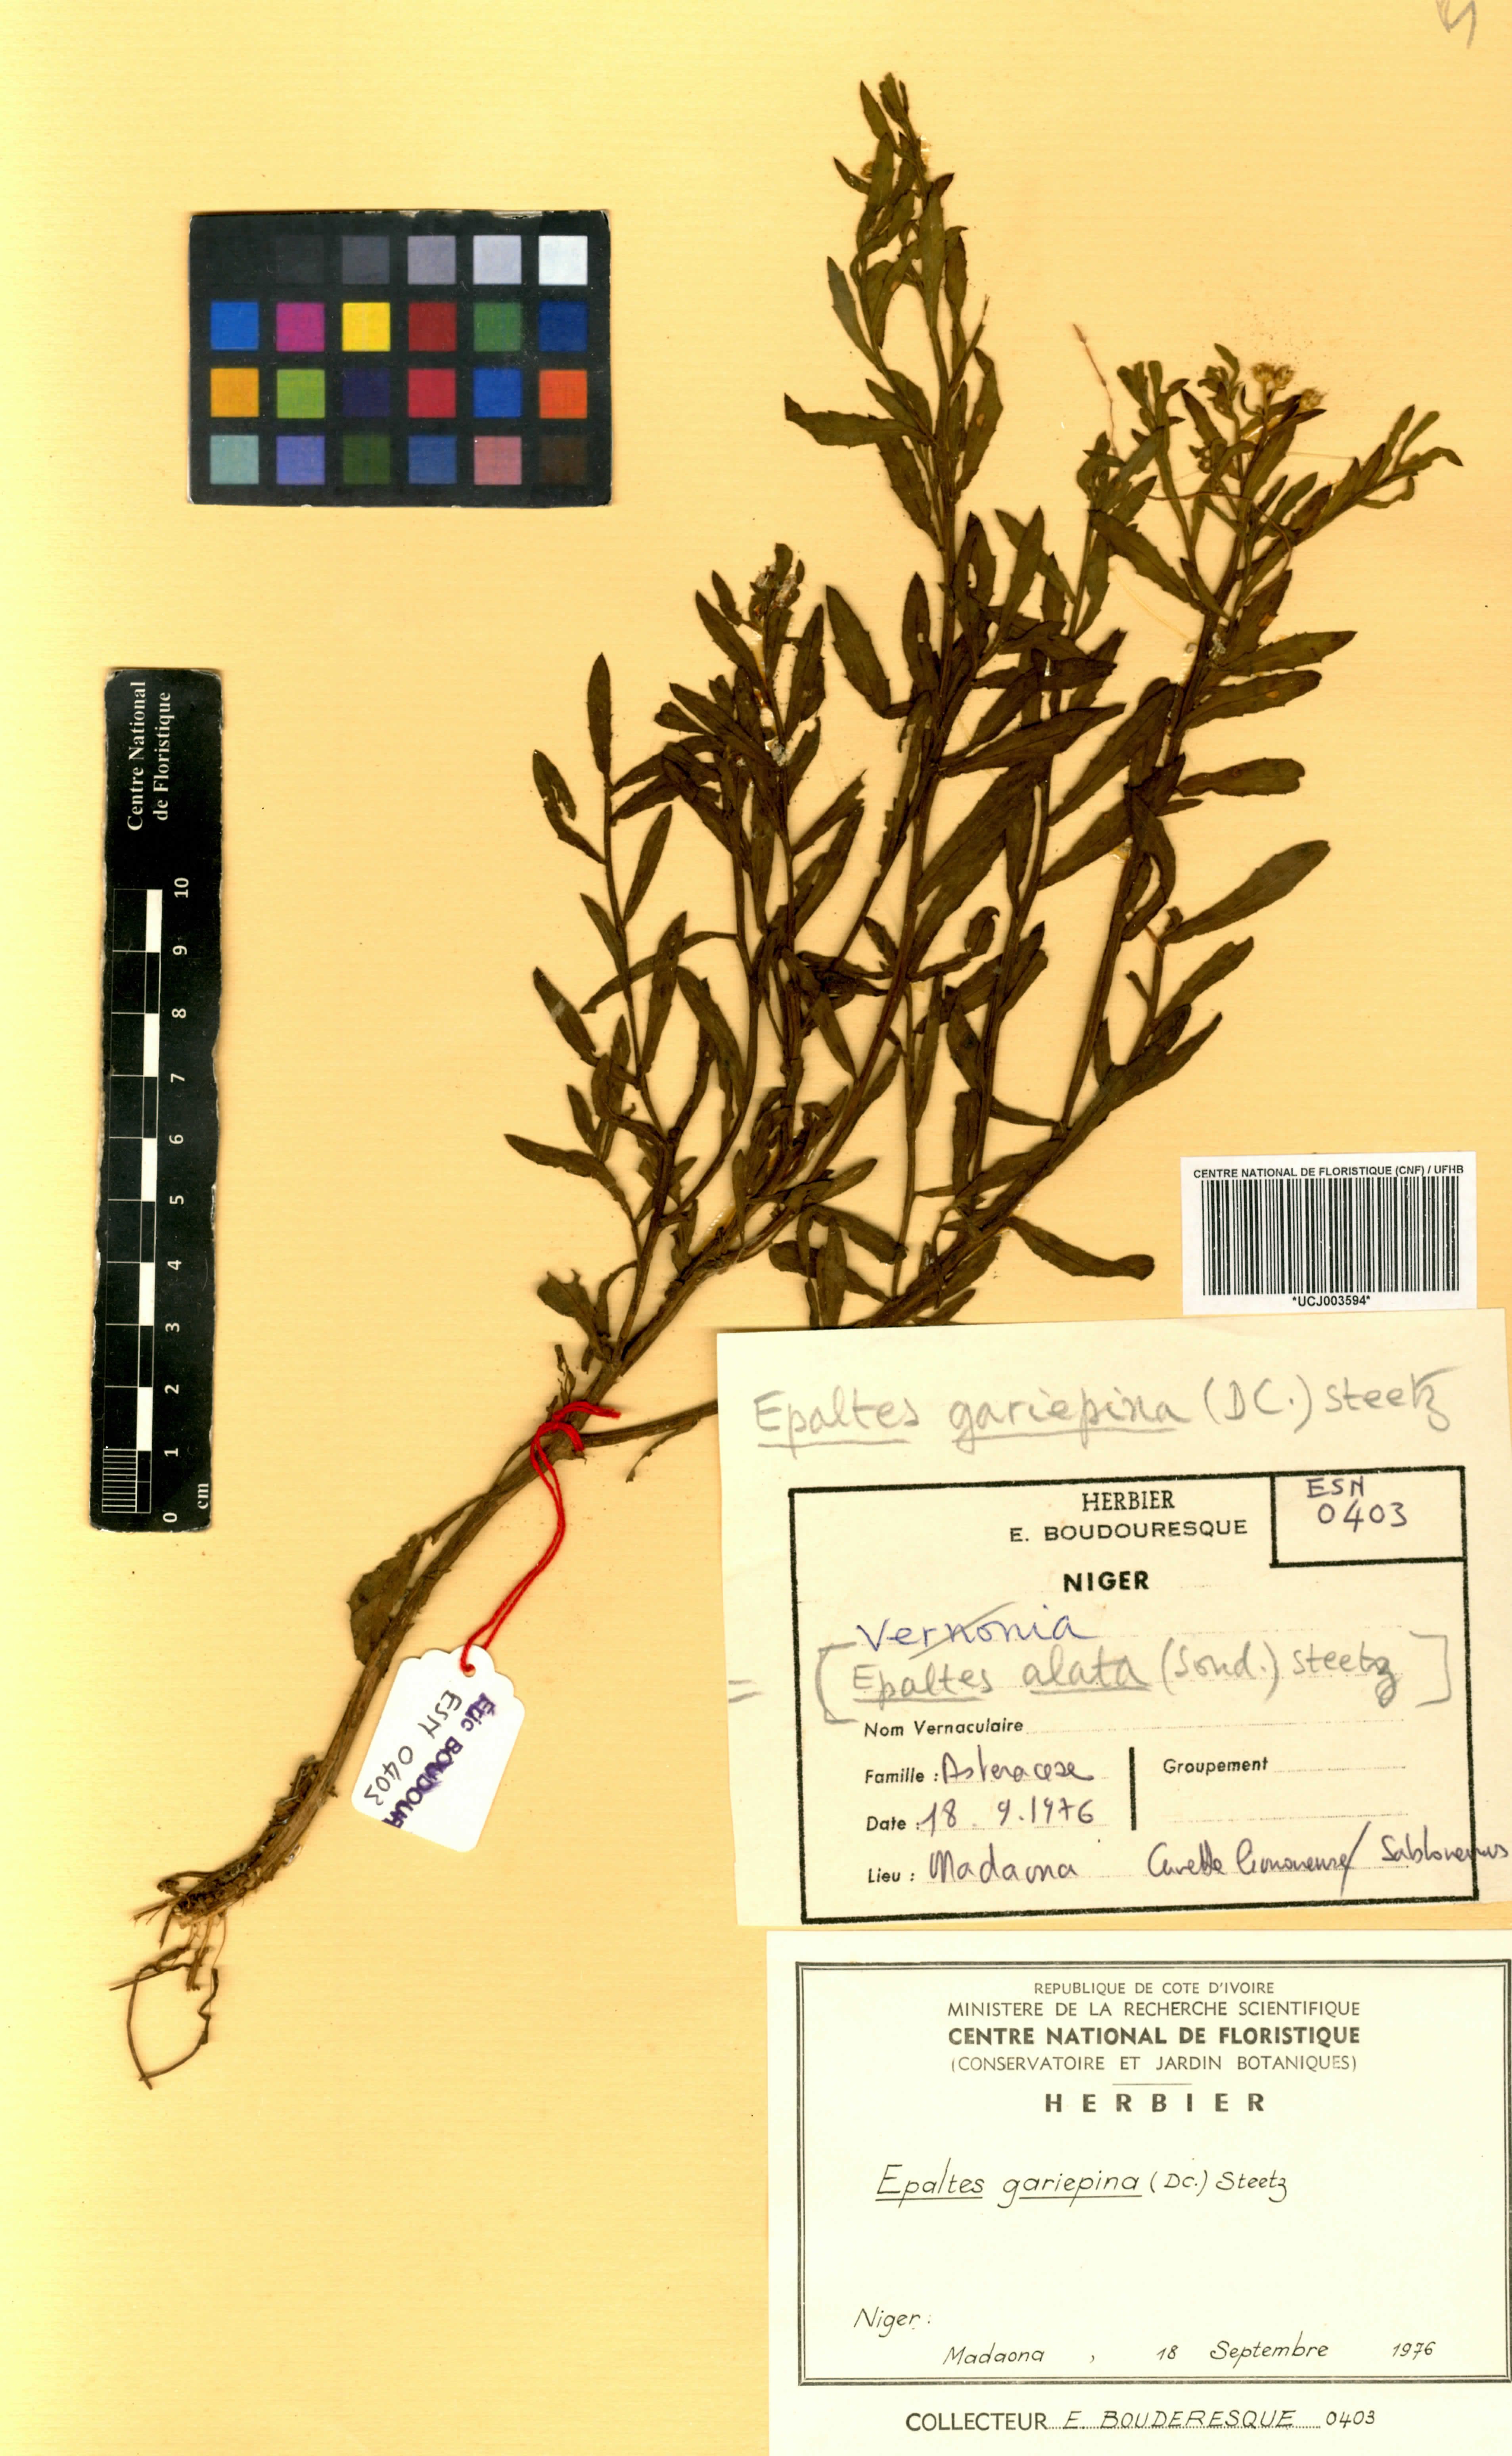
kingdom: Plantae
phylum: Tracheophyta
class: Magnoliopsida
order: Asterales
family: Asteraceae
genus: Litogyne
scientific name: Litogyne gariepina
